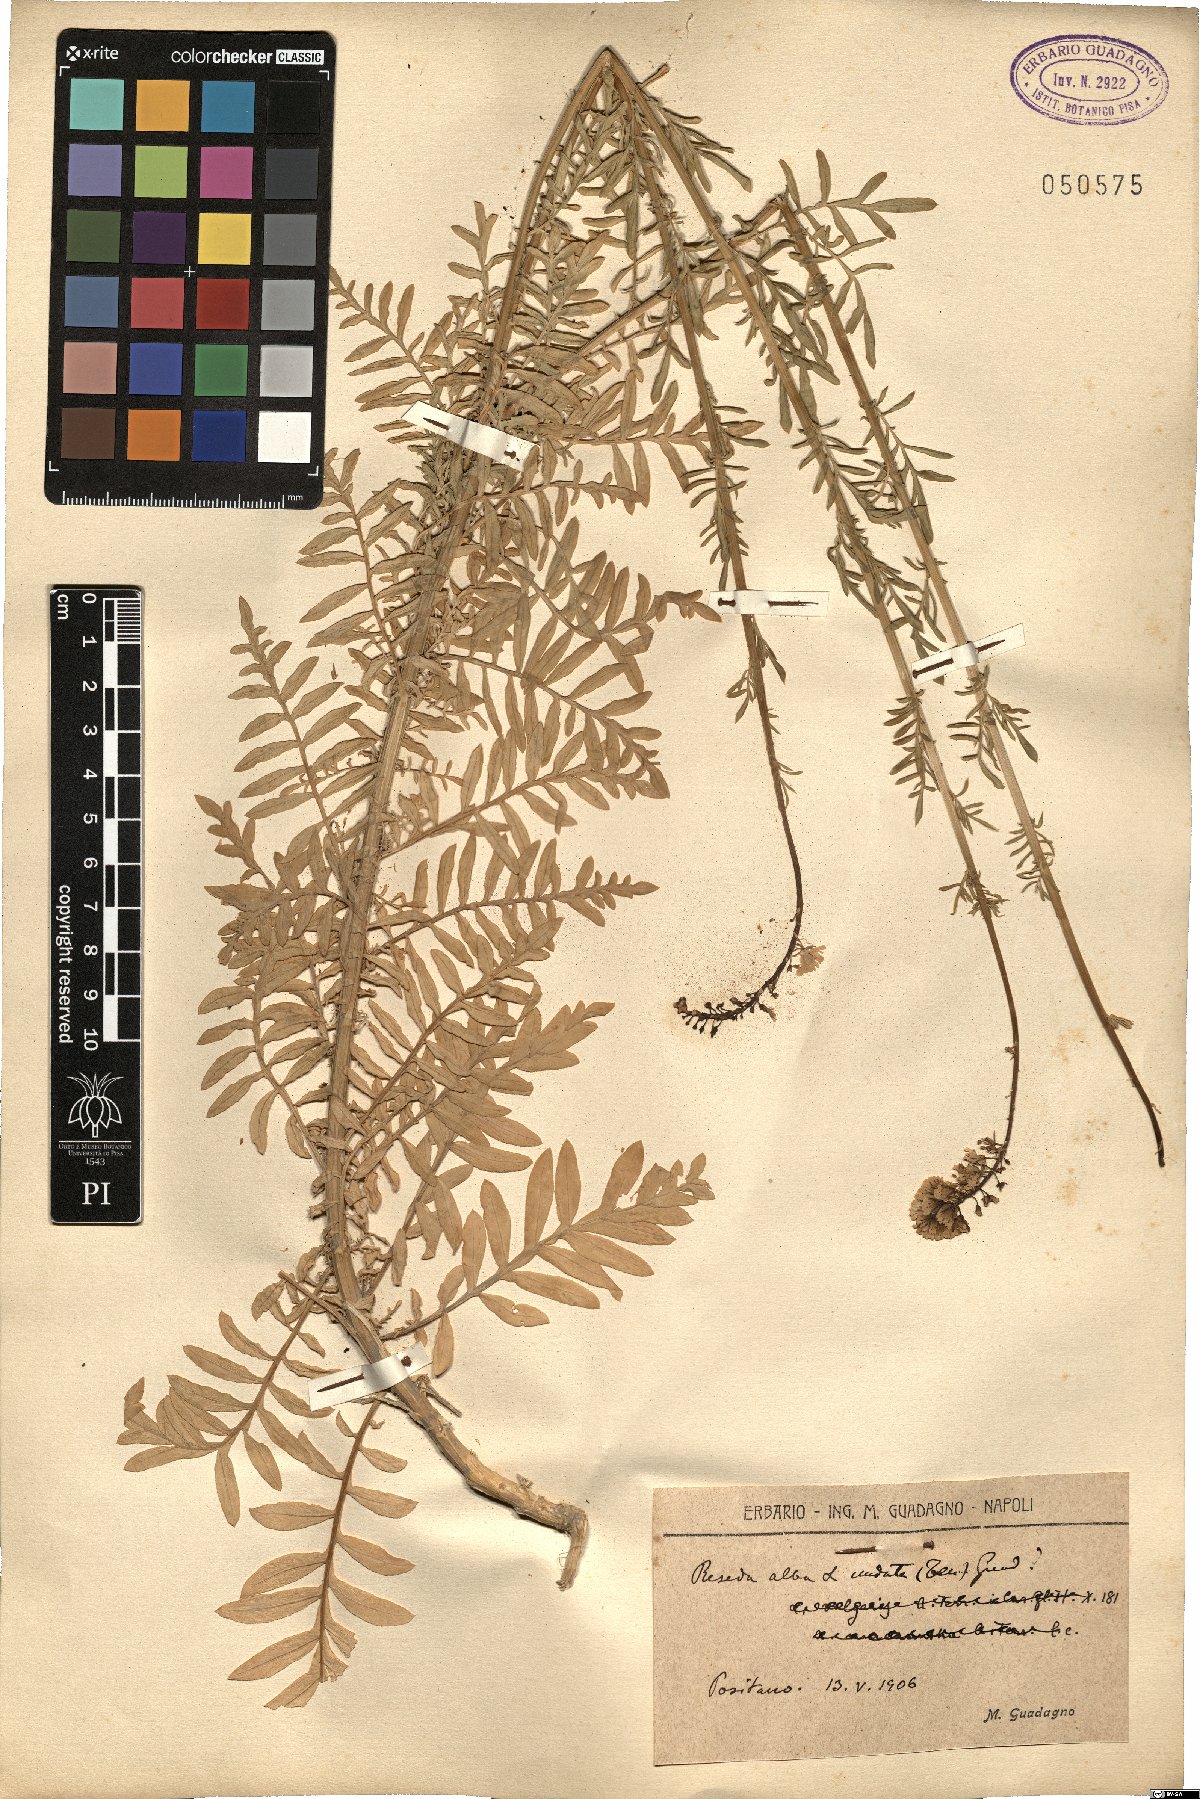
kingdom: Plantae
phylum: Tracheophyta
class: Magnoliopsida
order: Brassicales
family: Resedaceae
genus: Reseda
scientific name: Reseda alba
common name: White mignonette
